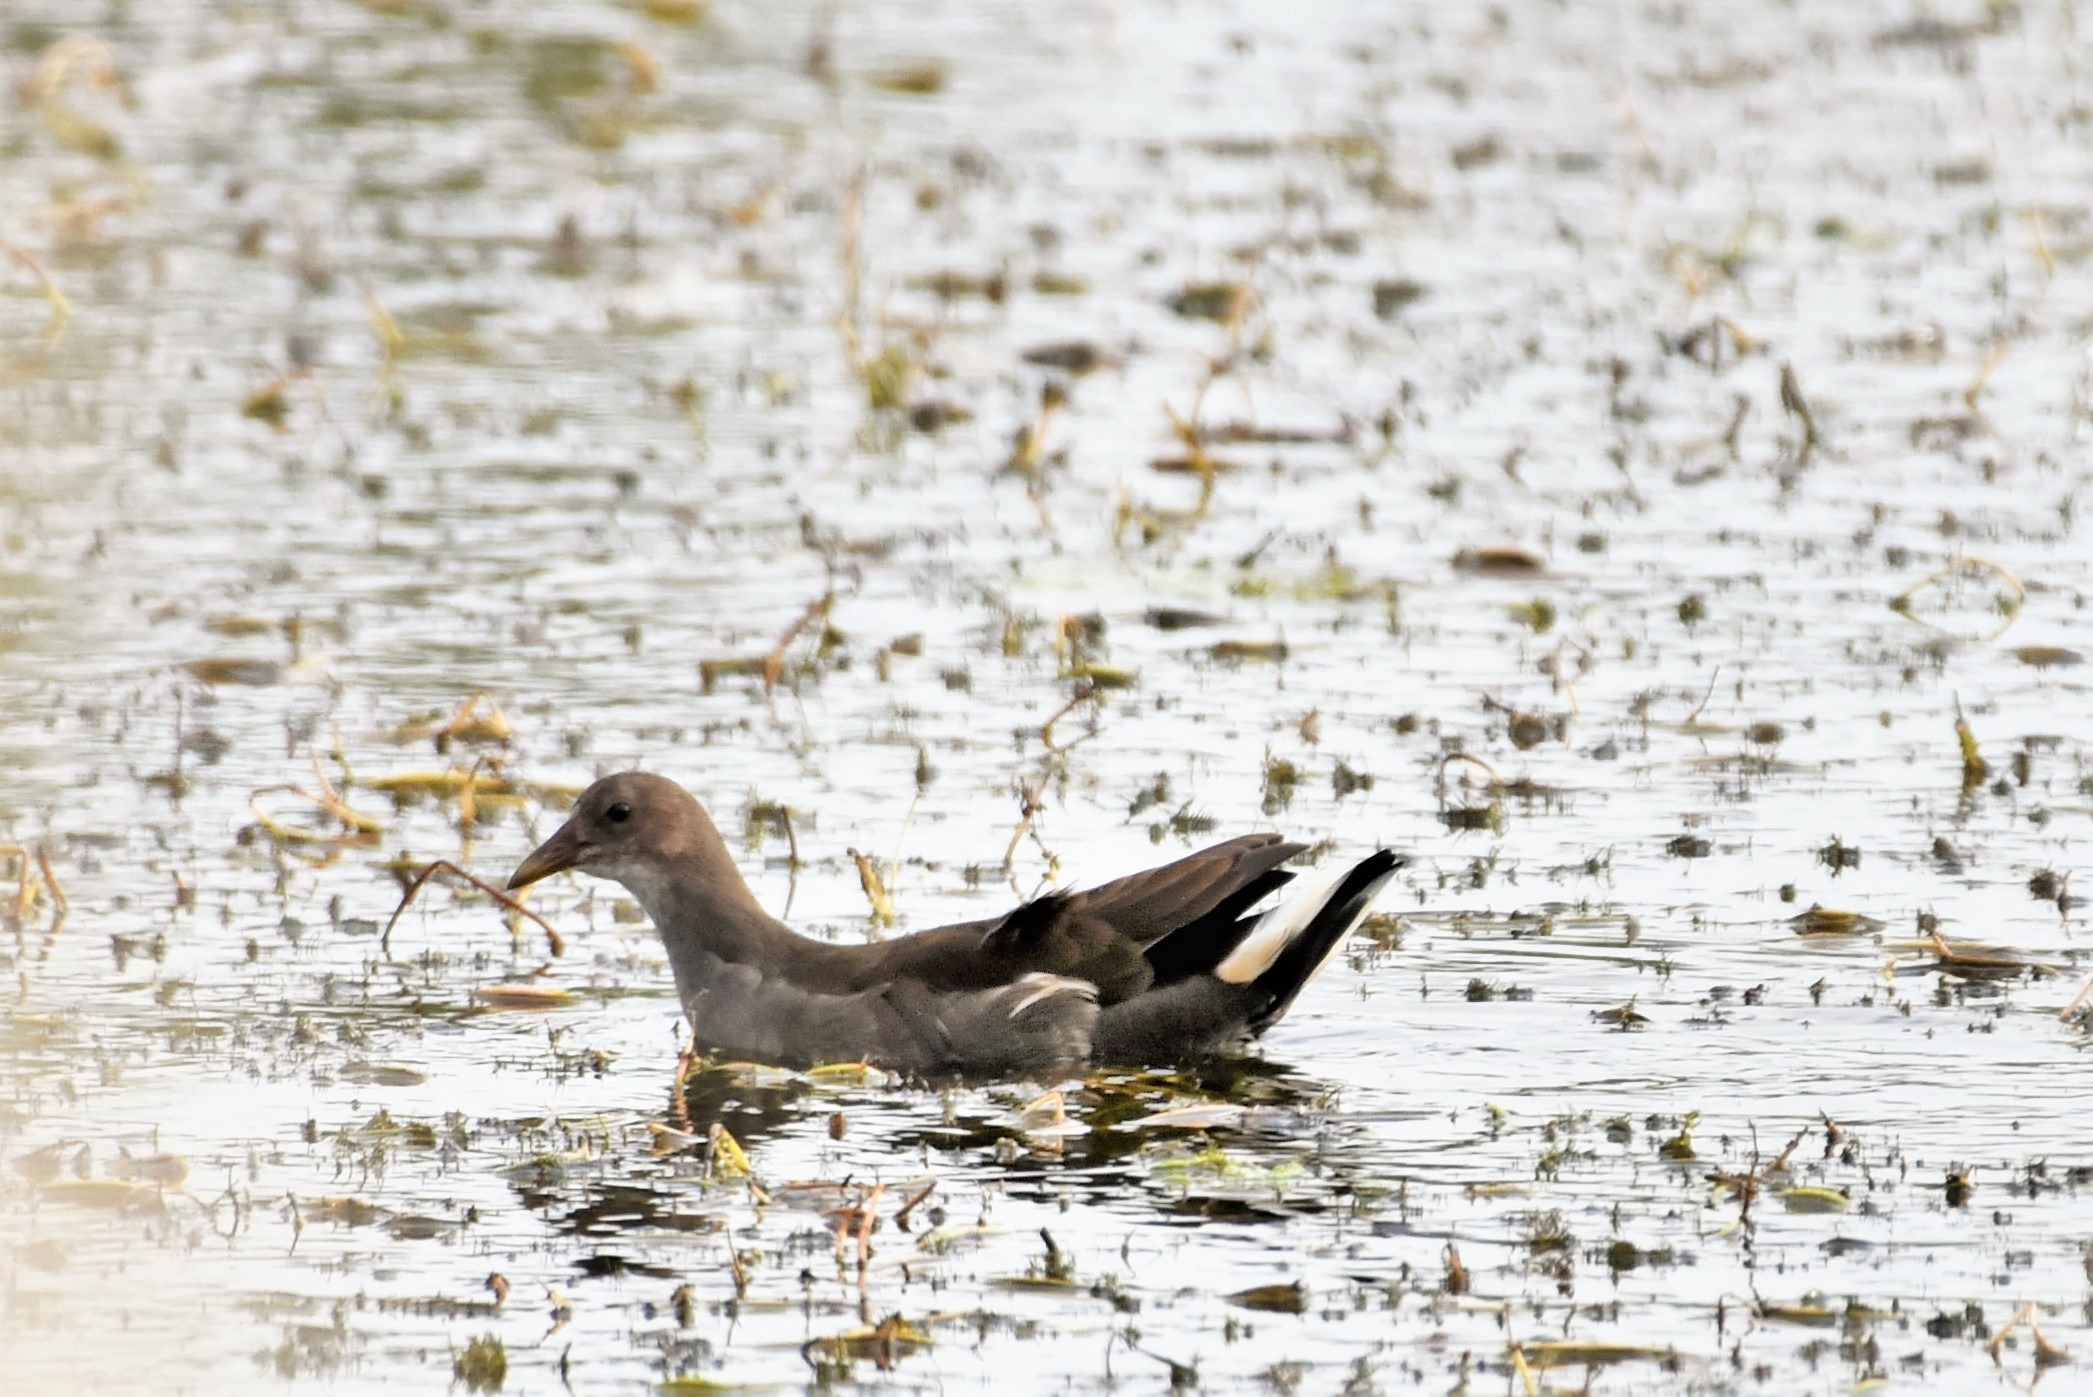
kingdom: Animalia
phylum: Chordata
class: Aves
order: Gruiformes
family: Rallidae
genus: Gallinula
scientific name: Gallinula chloropus
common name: Grønbenet rørhøne
